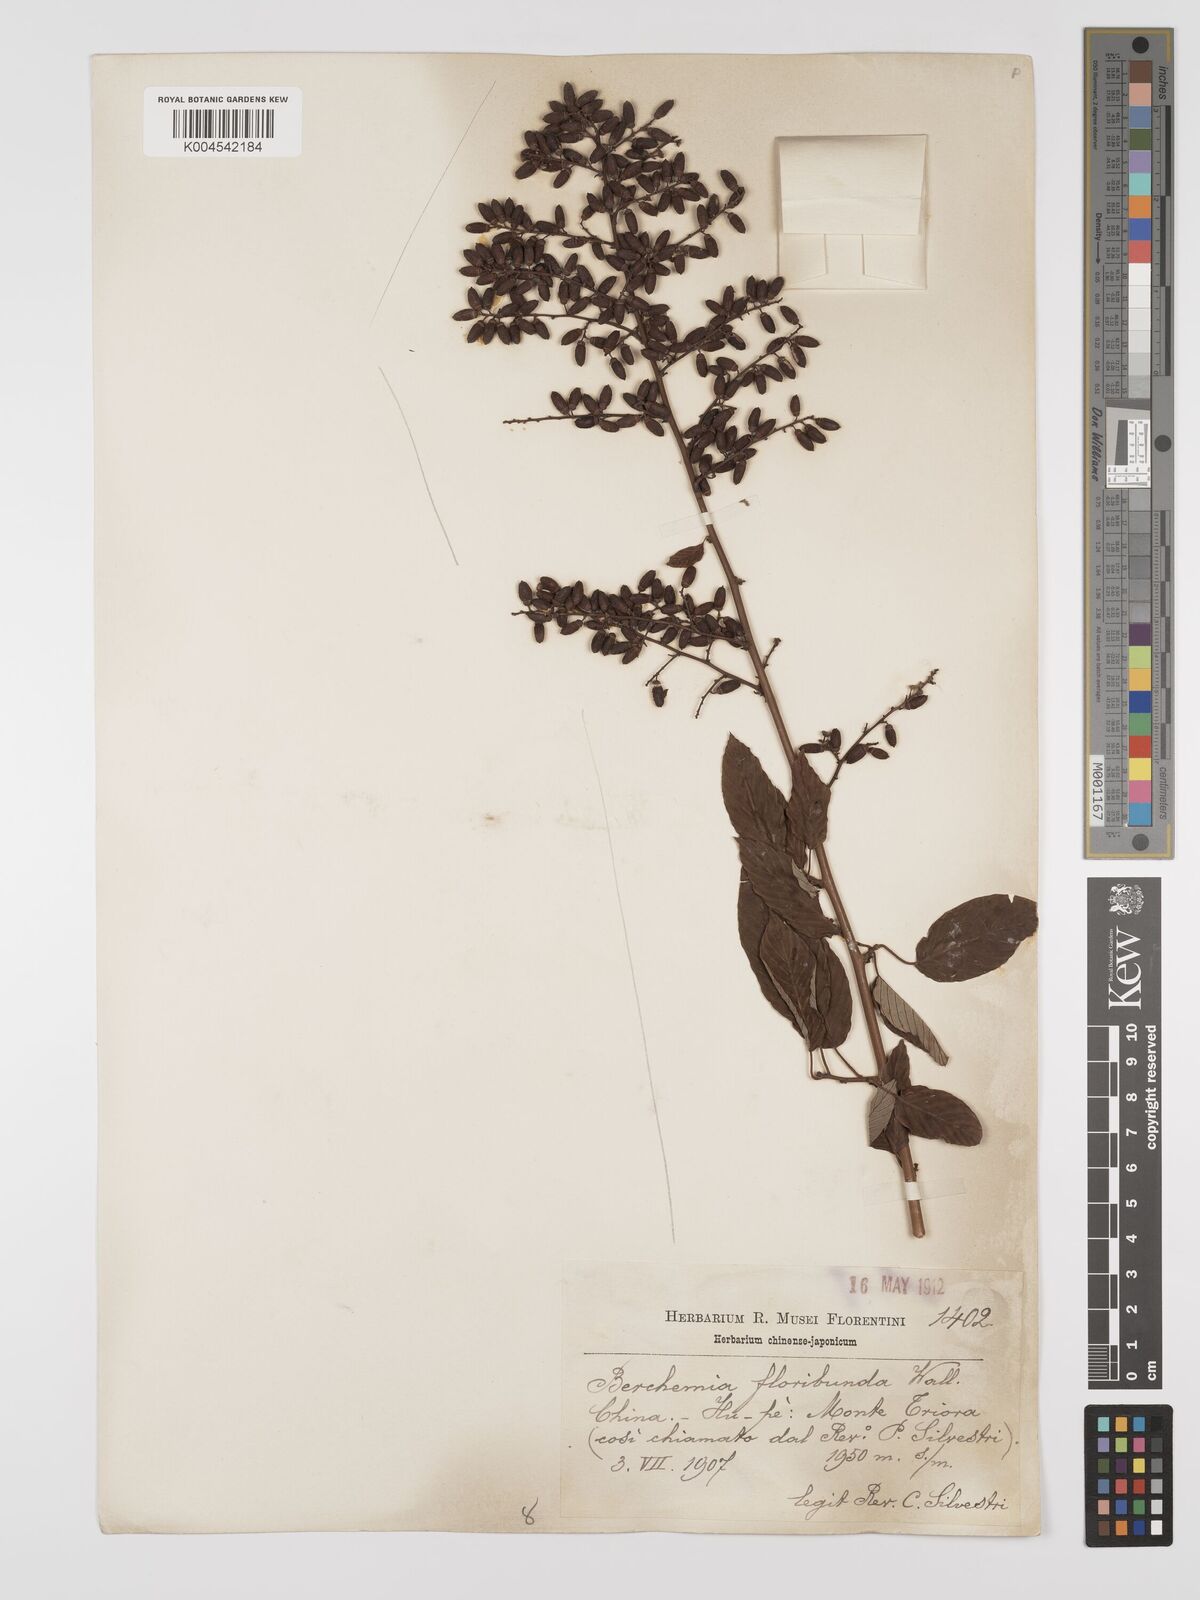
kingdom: Plantae
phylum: Tracheophyta
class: Magnoliopsida
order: Rosales
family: Rhamnaceae
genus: Berchemia
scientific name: Berchemia floribunda
